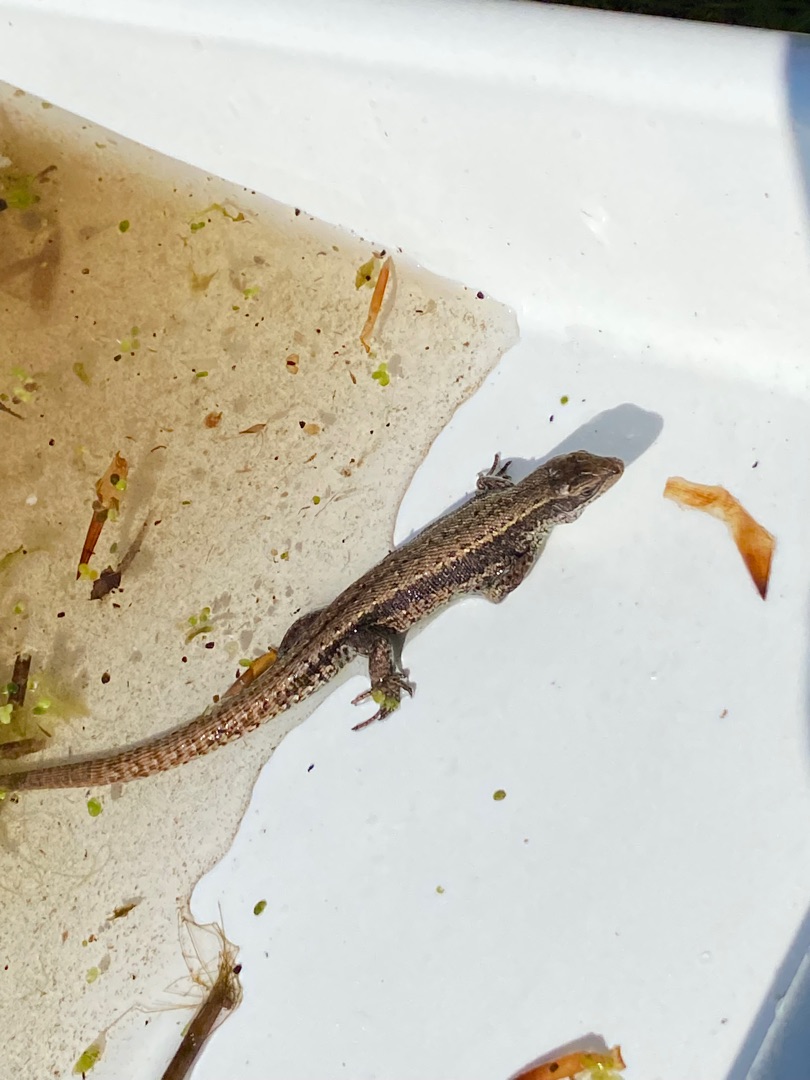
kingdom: Animalia
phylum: Chordata
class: Squamata
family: Lacertidae
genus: Zootoca
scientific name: Zootoca vivipara
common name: Skovfirben
